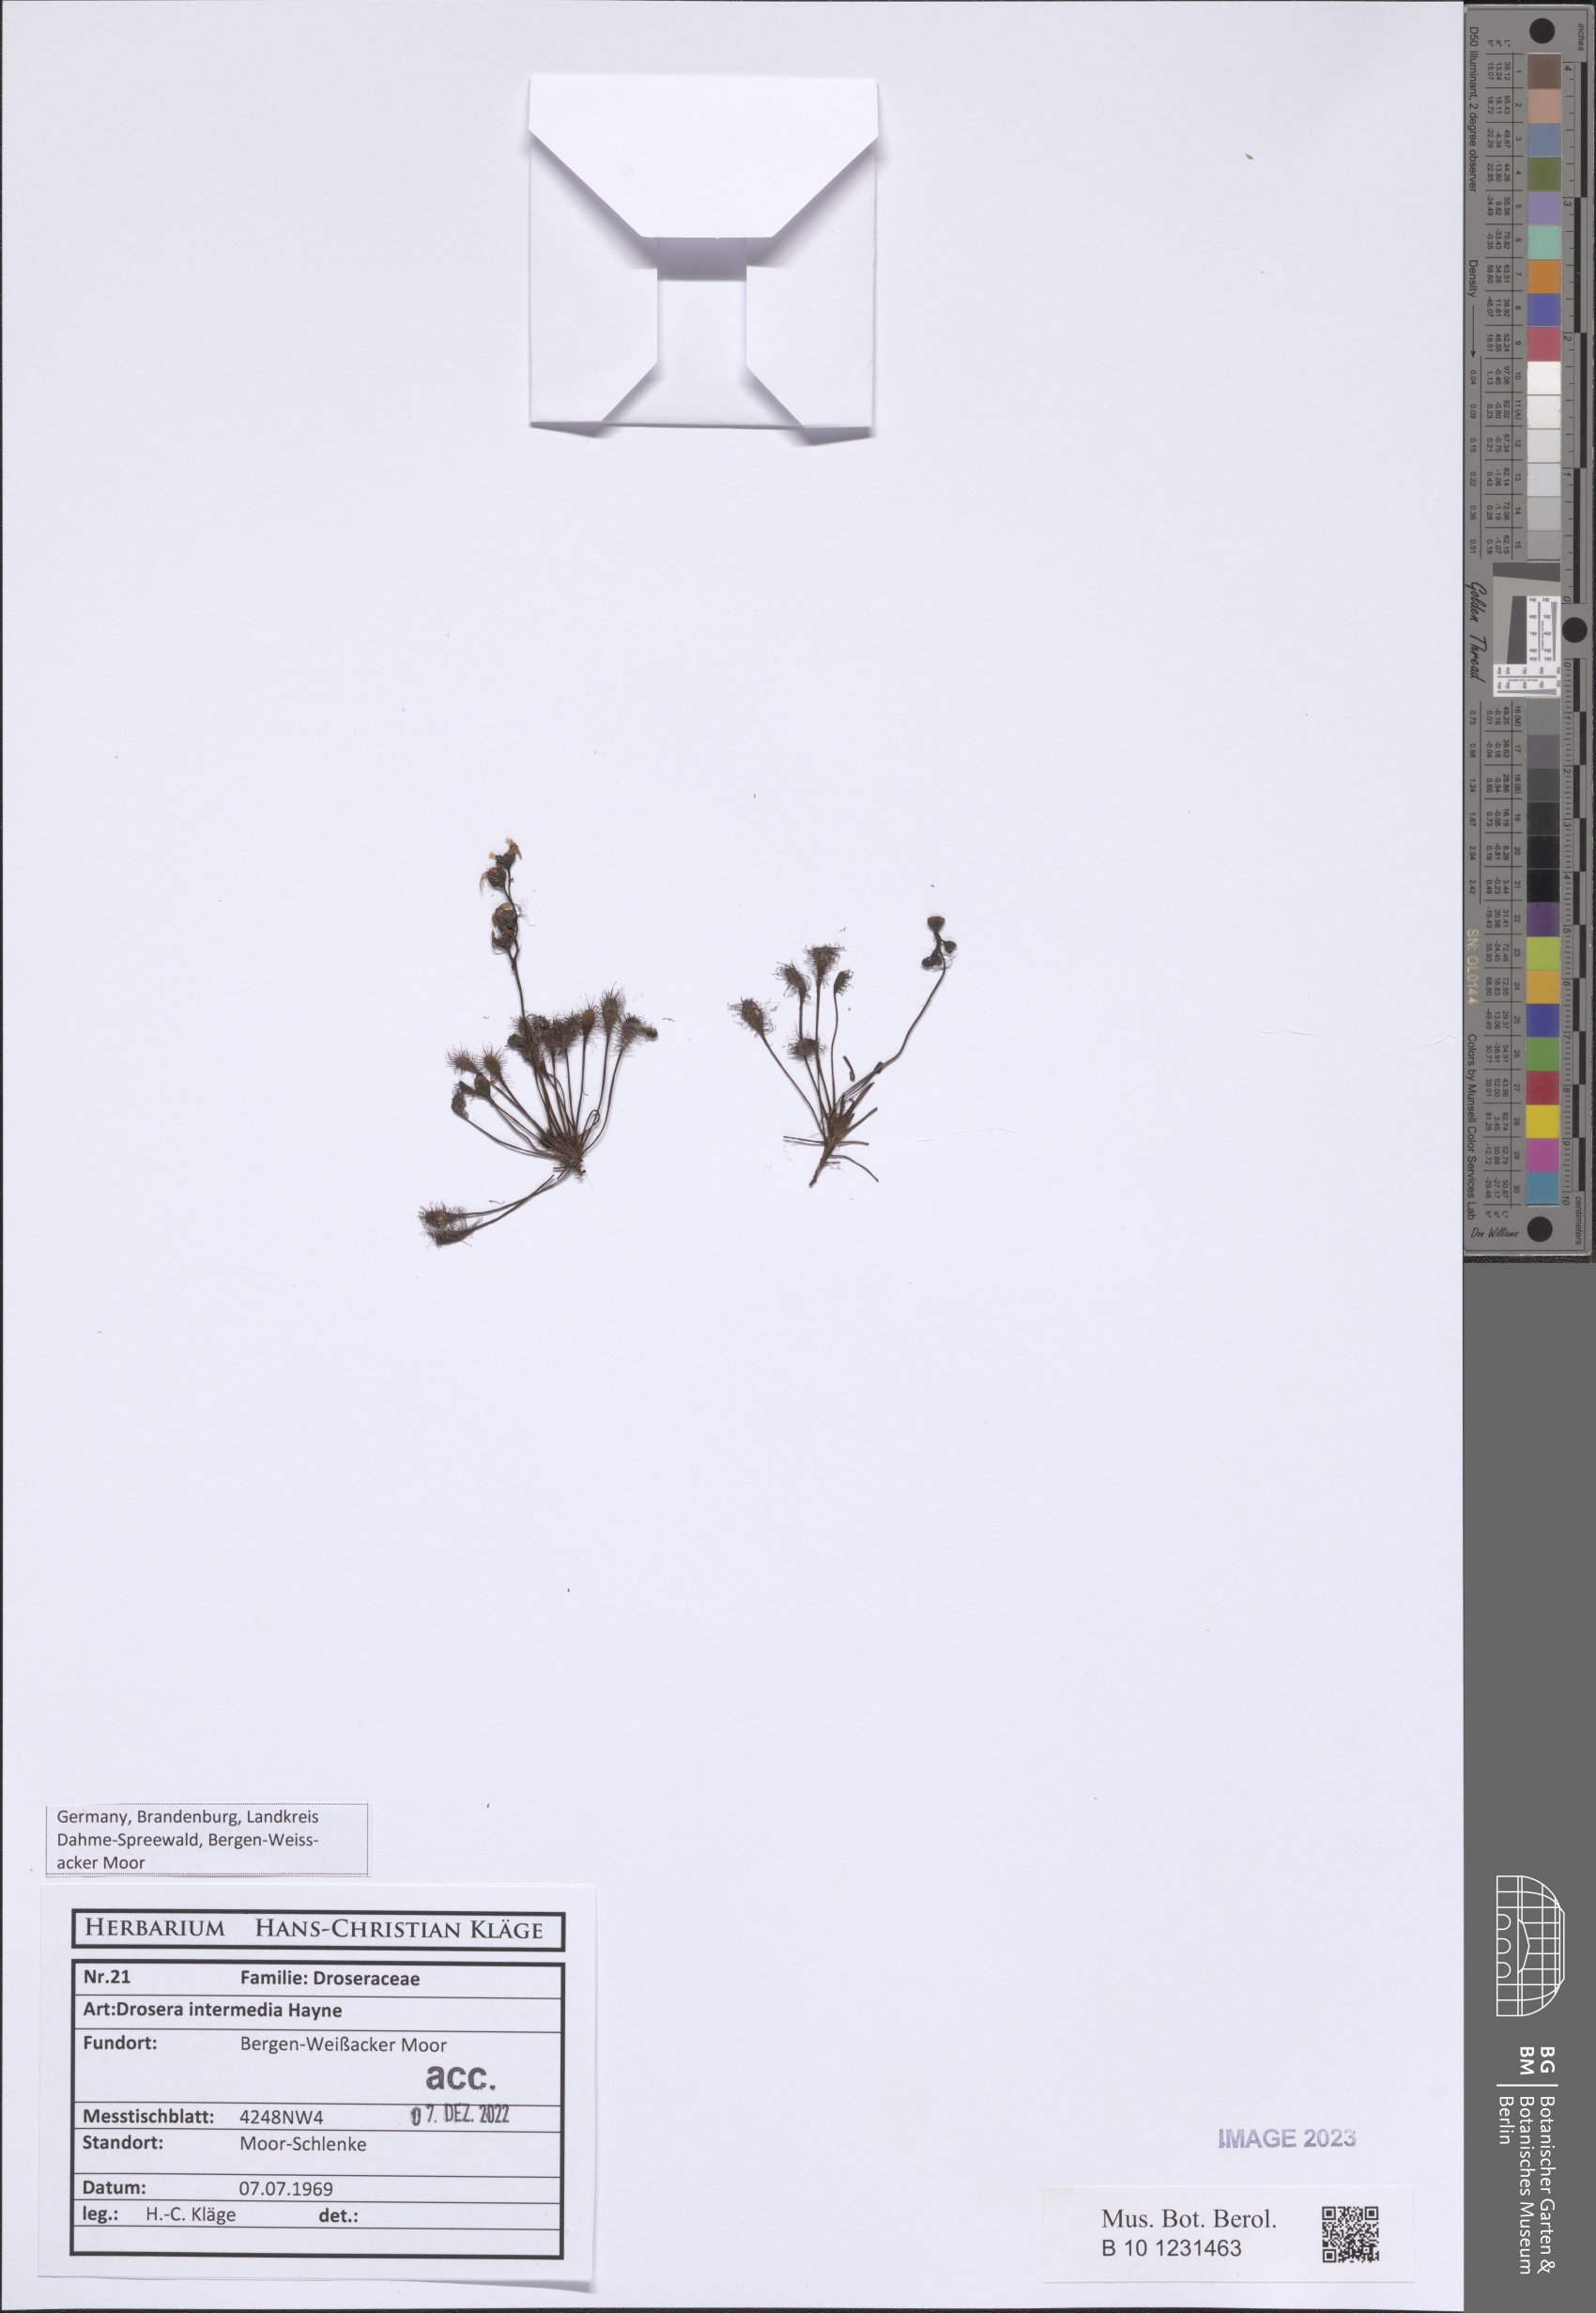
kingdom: Plantae
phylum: Tracheophyta
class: Magnoliopsida
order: Caryophyllales
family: Droseraceae
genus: Drosera
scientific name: Drosera intermedia
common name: Oblong-leaved sundew
